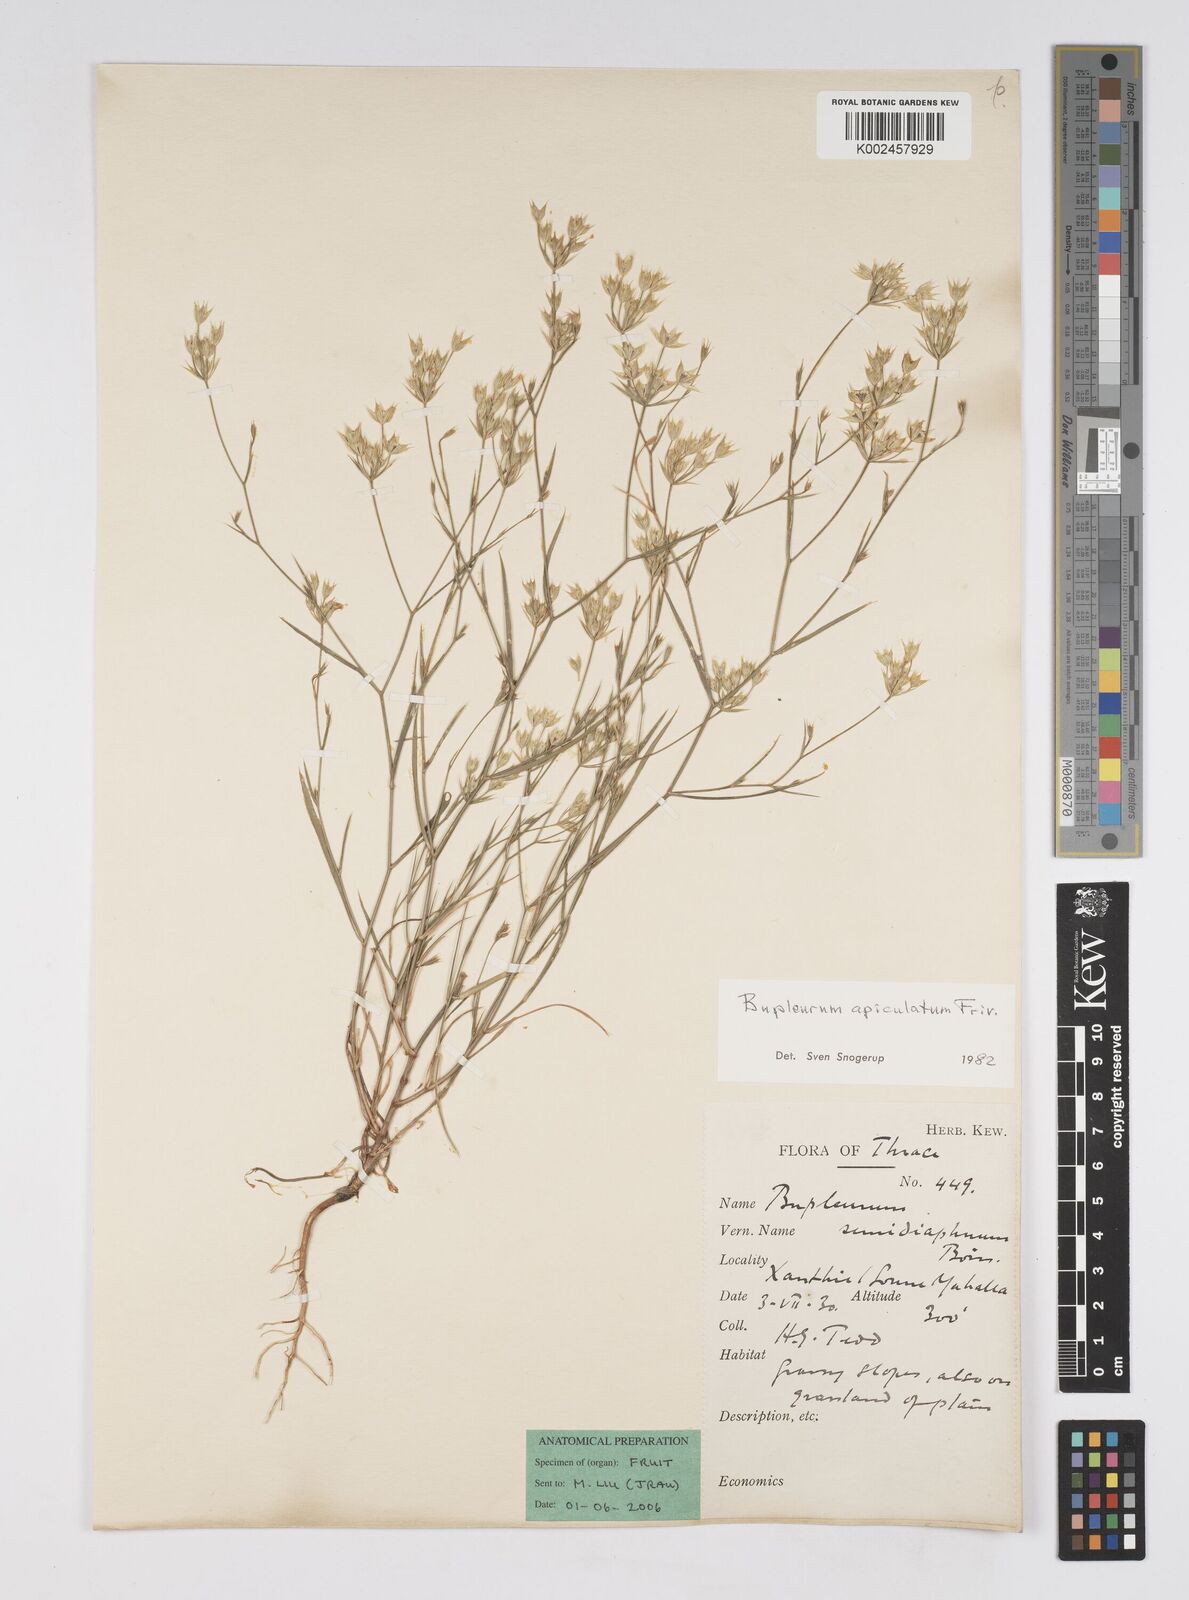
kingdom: Plantae
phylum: Tracheophyta
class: Magnoliopsida
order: Apiales
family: Apiaceae
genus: Bupleurum
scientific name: Bupleurum apiculatum
